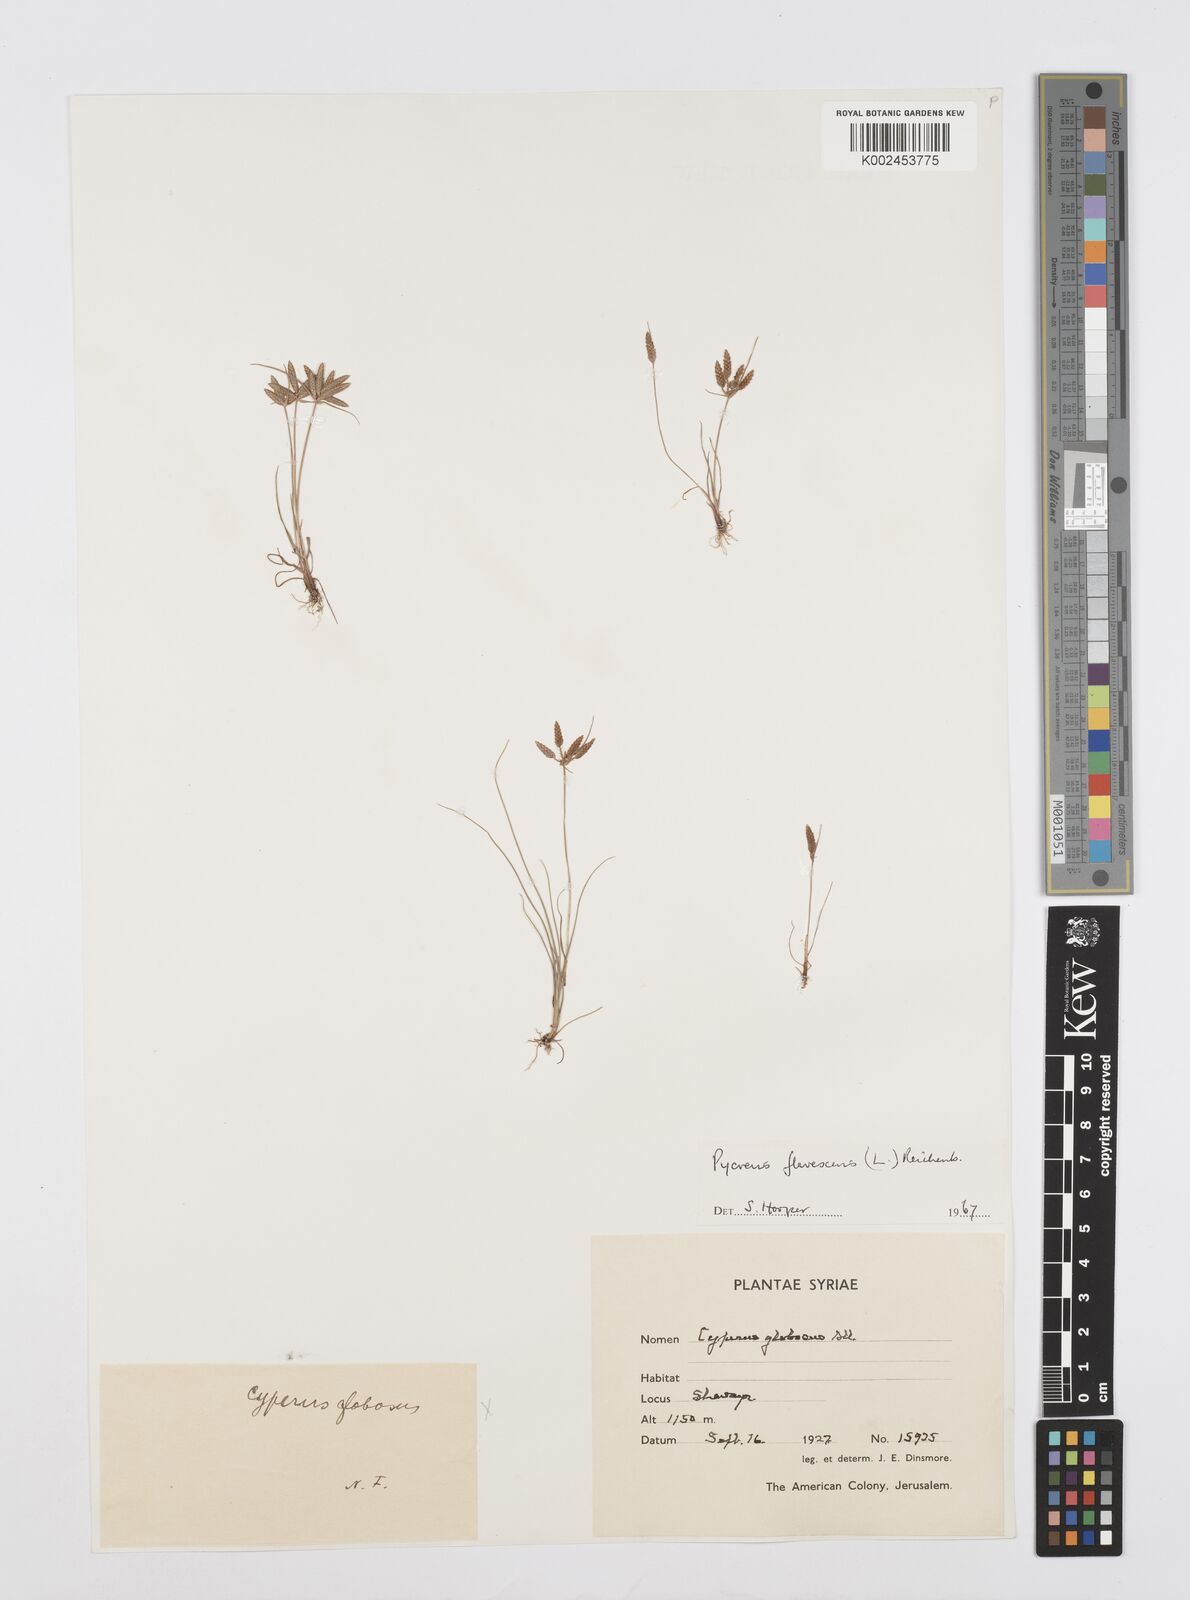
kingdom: Plantae
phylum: Tracheophyta
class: Liliopsida
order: Poales
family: Cyperaceae
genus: Cyperus
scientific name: Cyperus flavescens
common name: Yellow galingale
